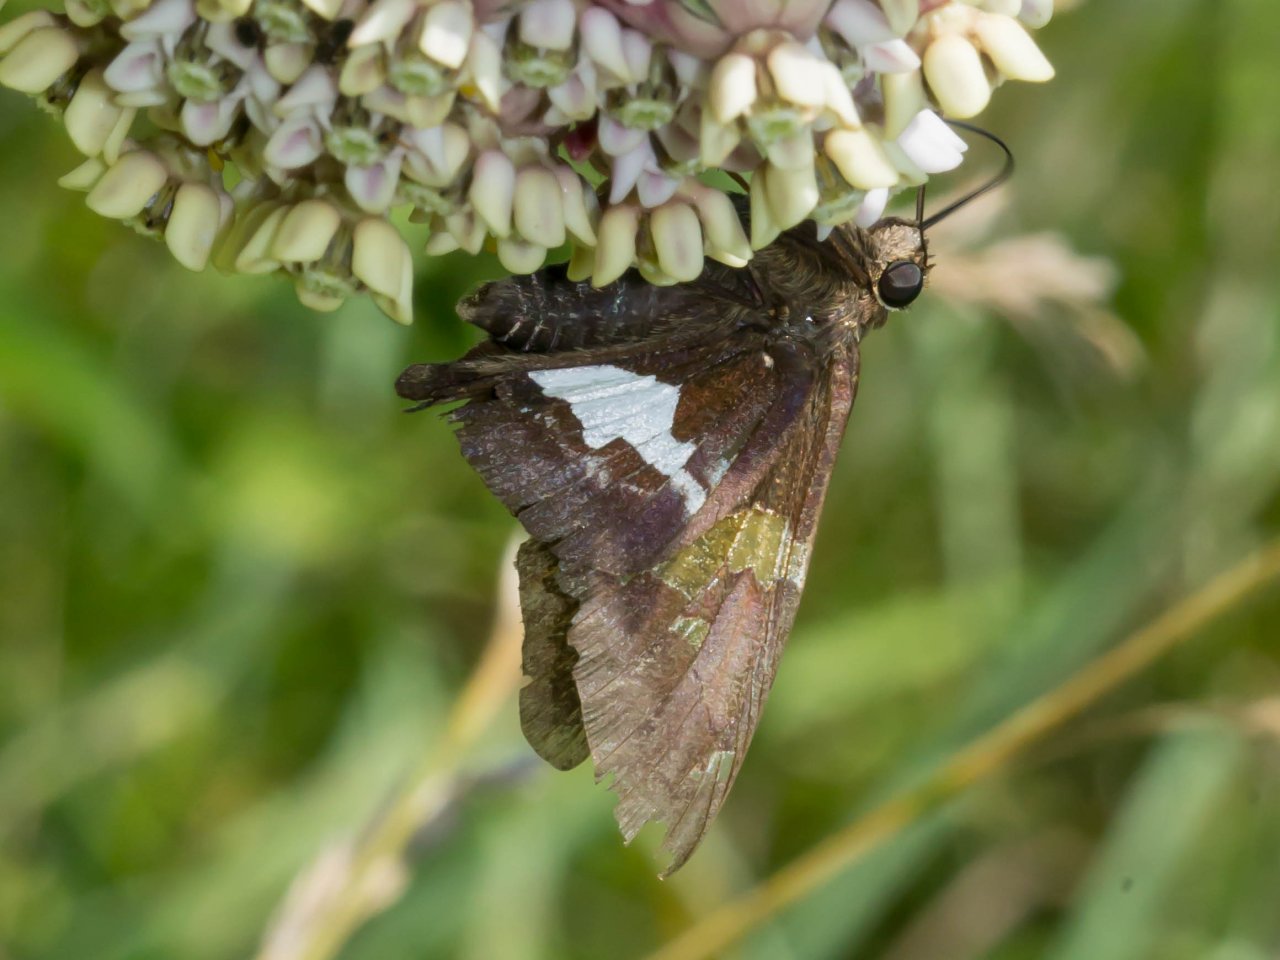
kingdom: Animalia
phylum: Arthropoda
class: Insecta
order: Lepidoptera
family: Hesperiidae
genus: Epargyreus
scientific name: Epargyreus clarus
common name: Silver-spotted Skipper
